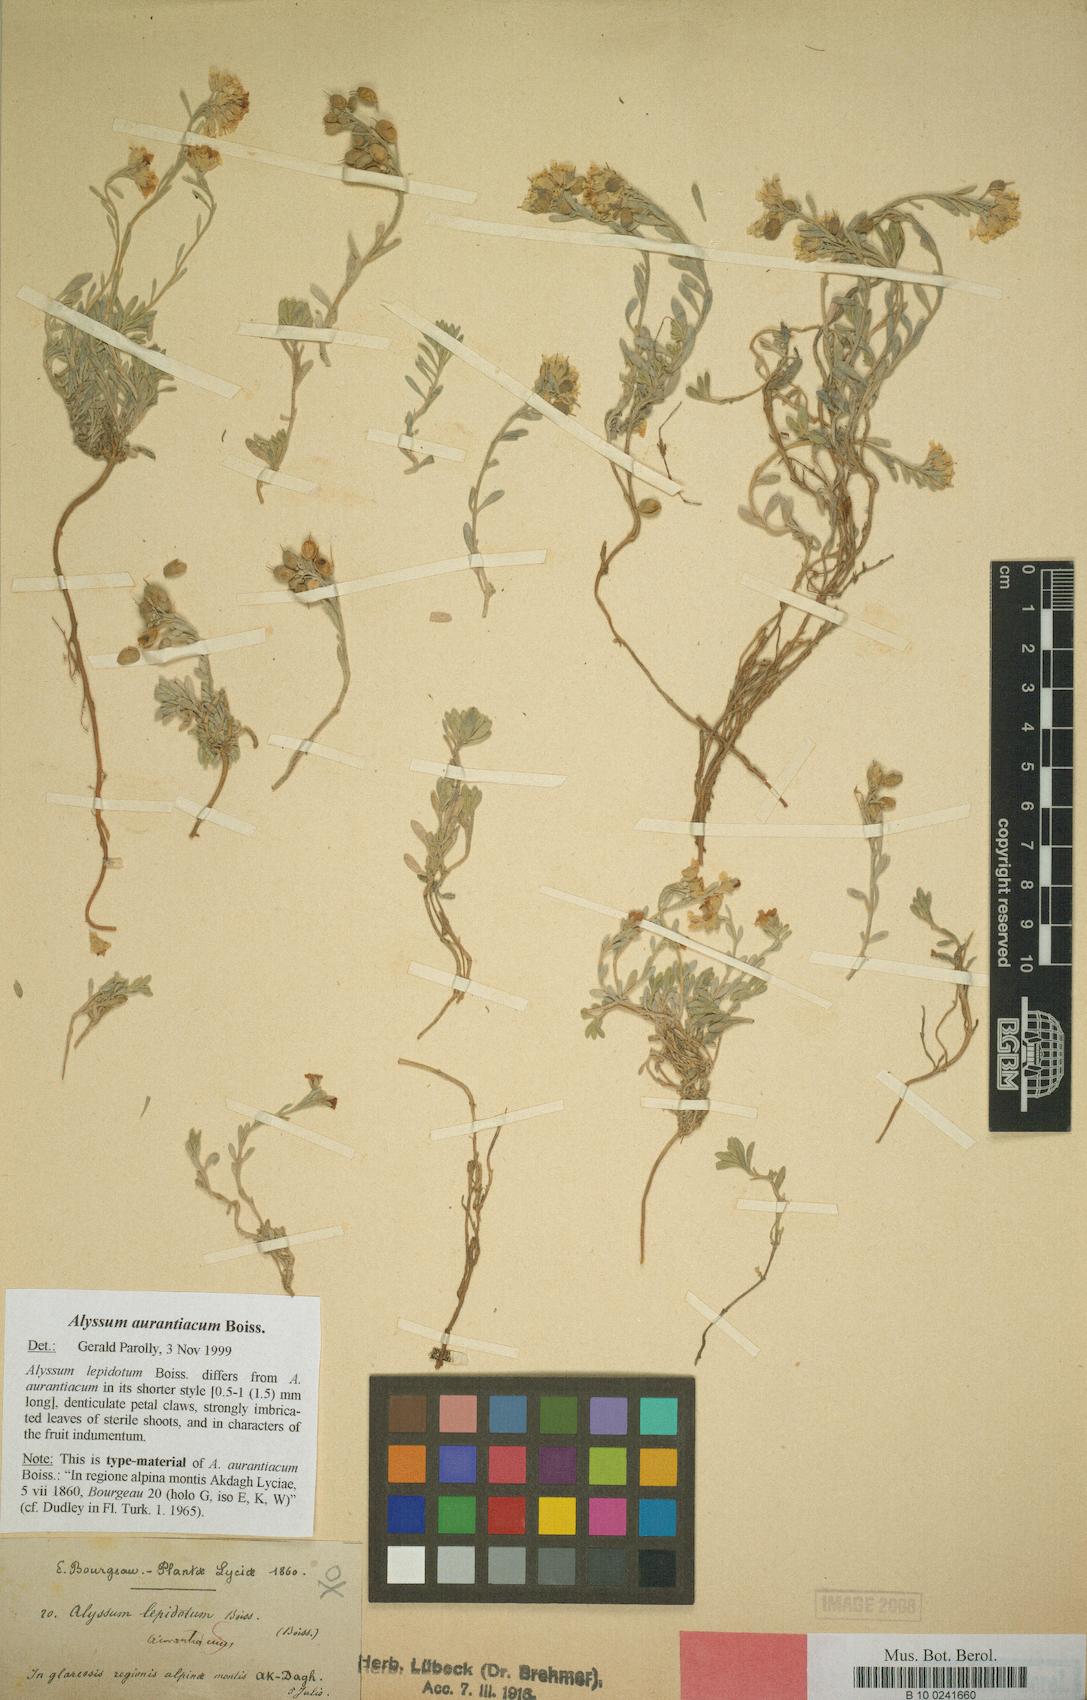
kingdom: Plantae
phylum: Tracheophyta
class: Magnoliopsida
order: Brassicales
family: Brassicaceae
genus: Alyssum
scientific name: Alyssum aurantiacum
